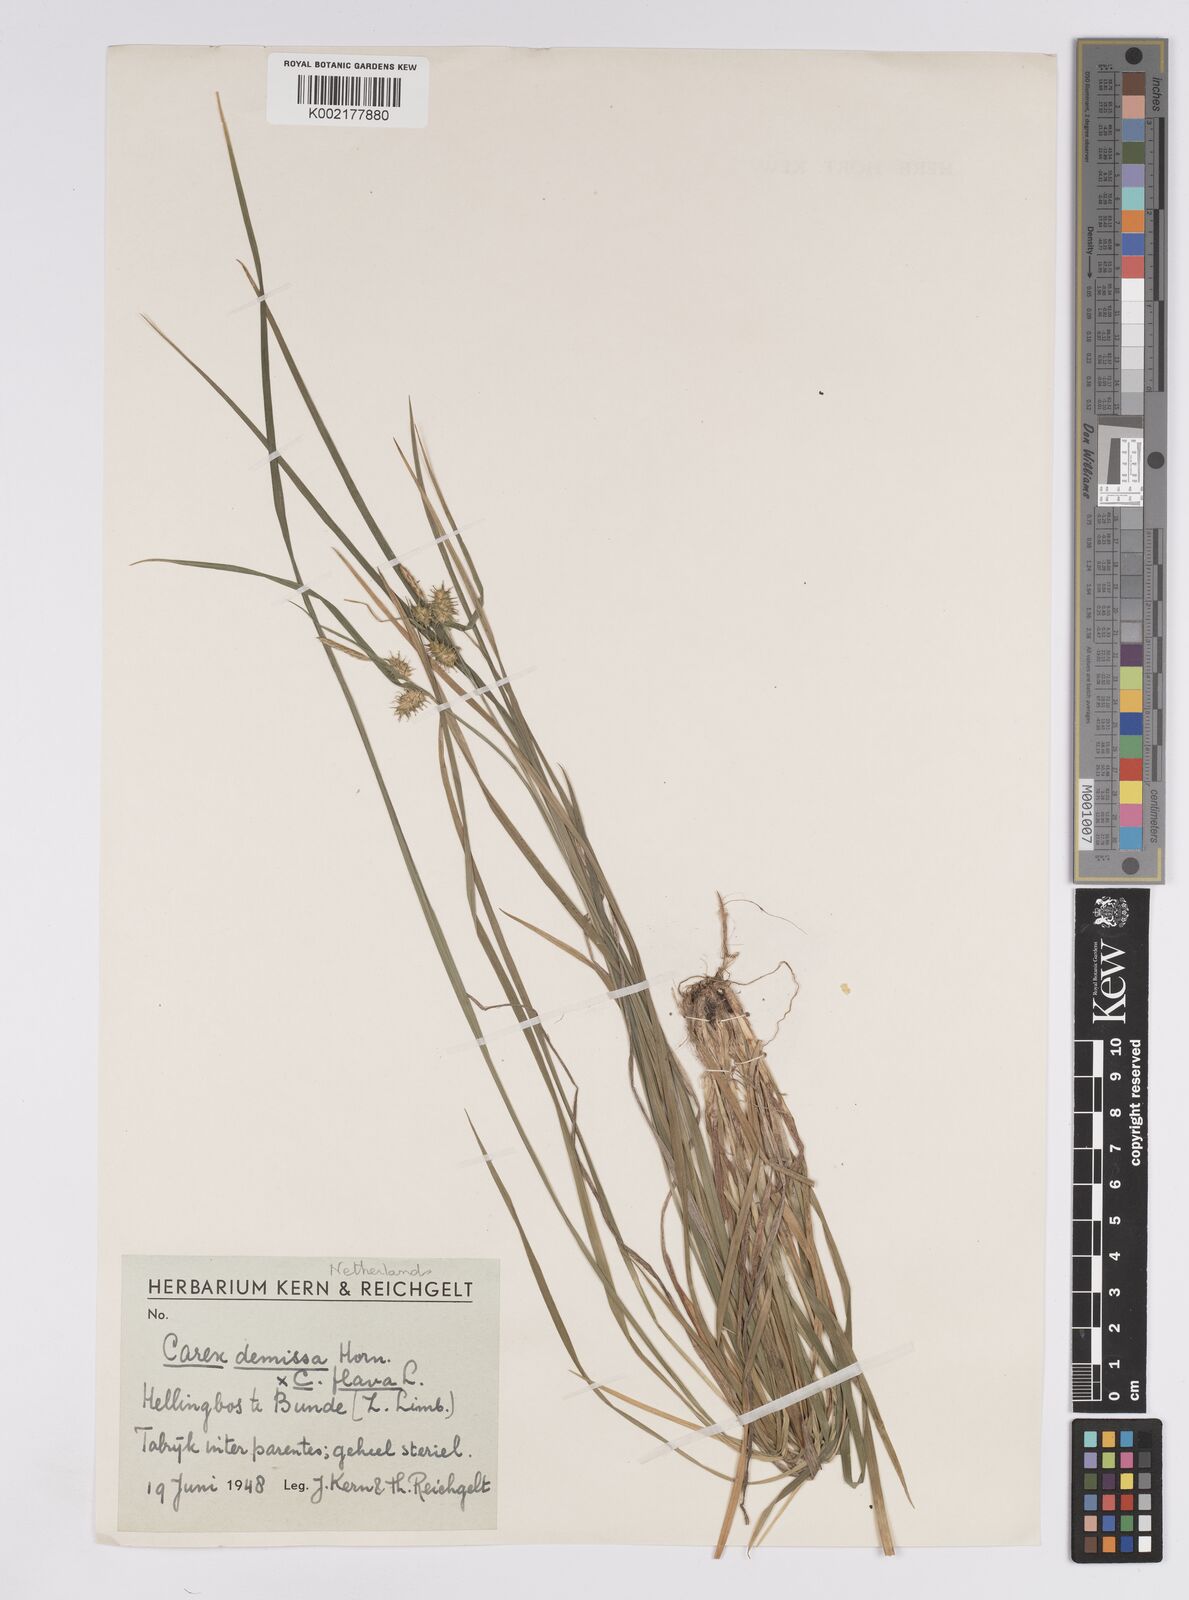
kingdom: Plantae
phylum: Tracheophyta
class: Liliopsida
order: Poales
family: Cyperaceae
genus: Carex
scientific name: Carex flava
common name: Large yellow-sedge
